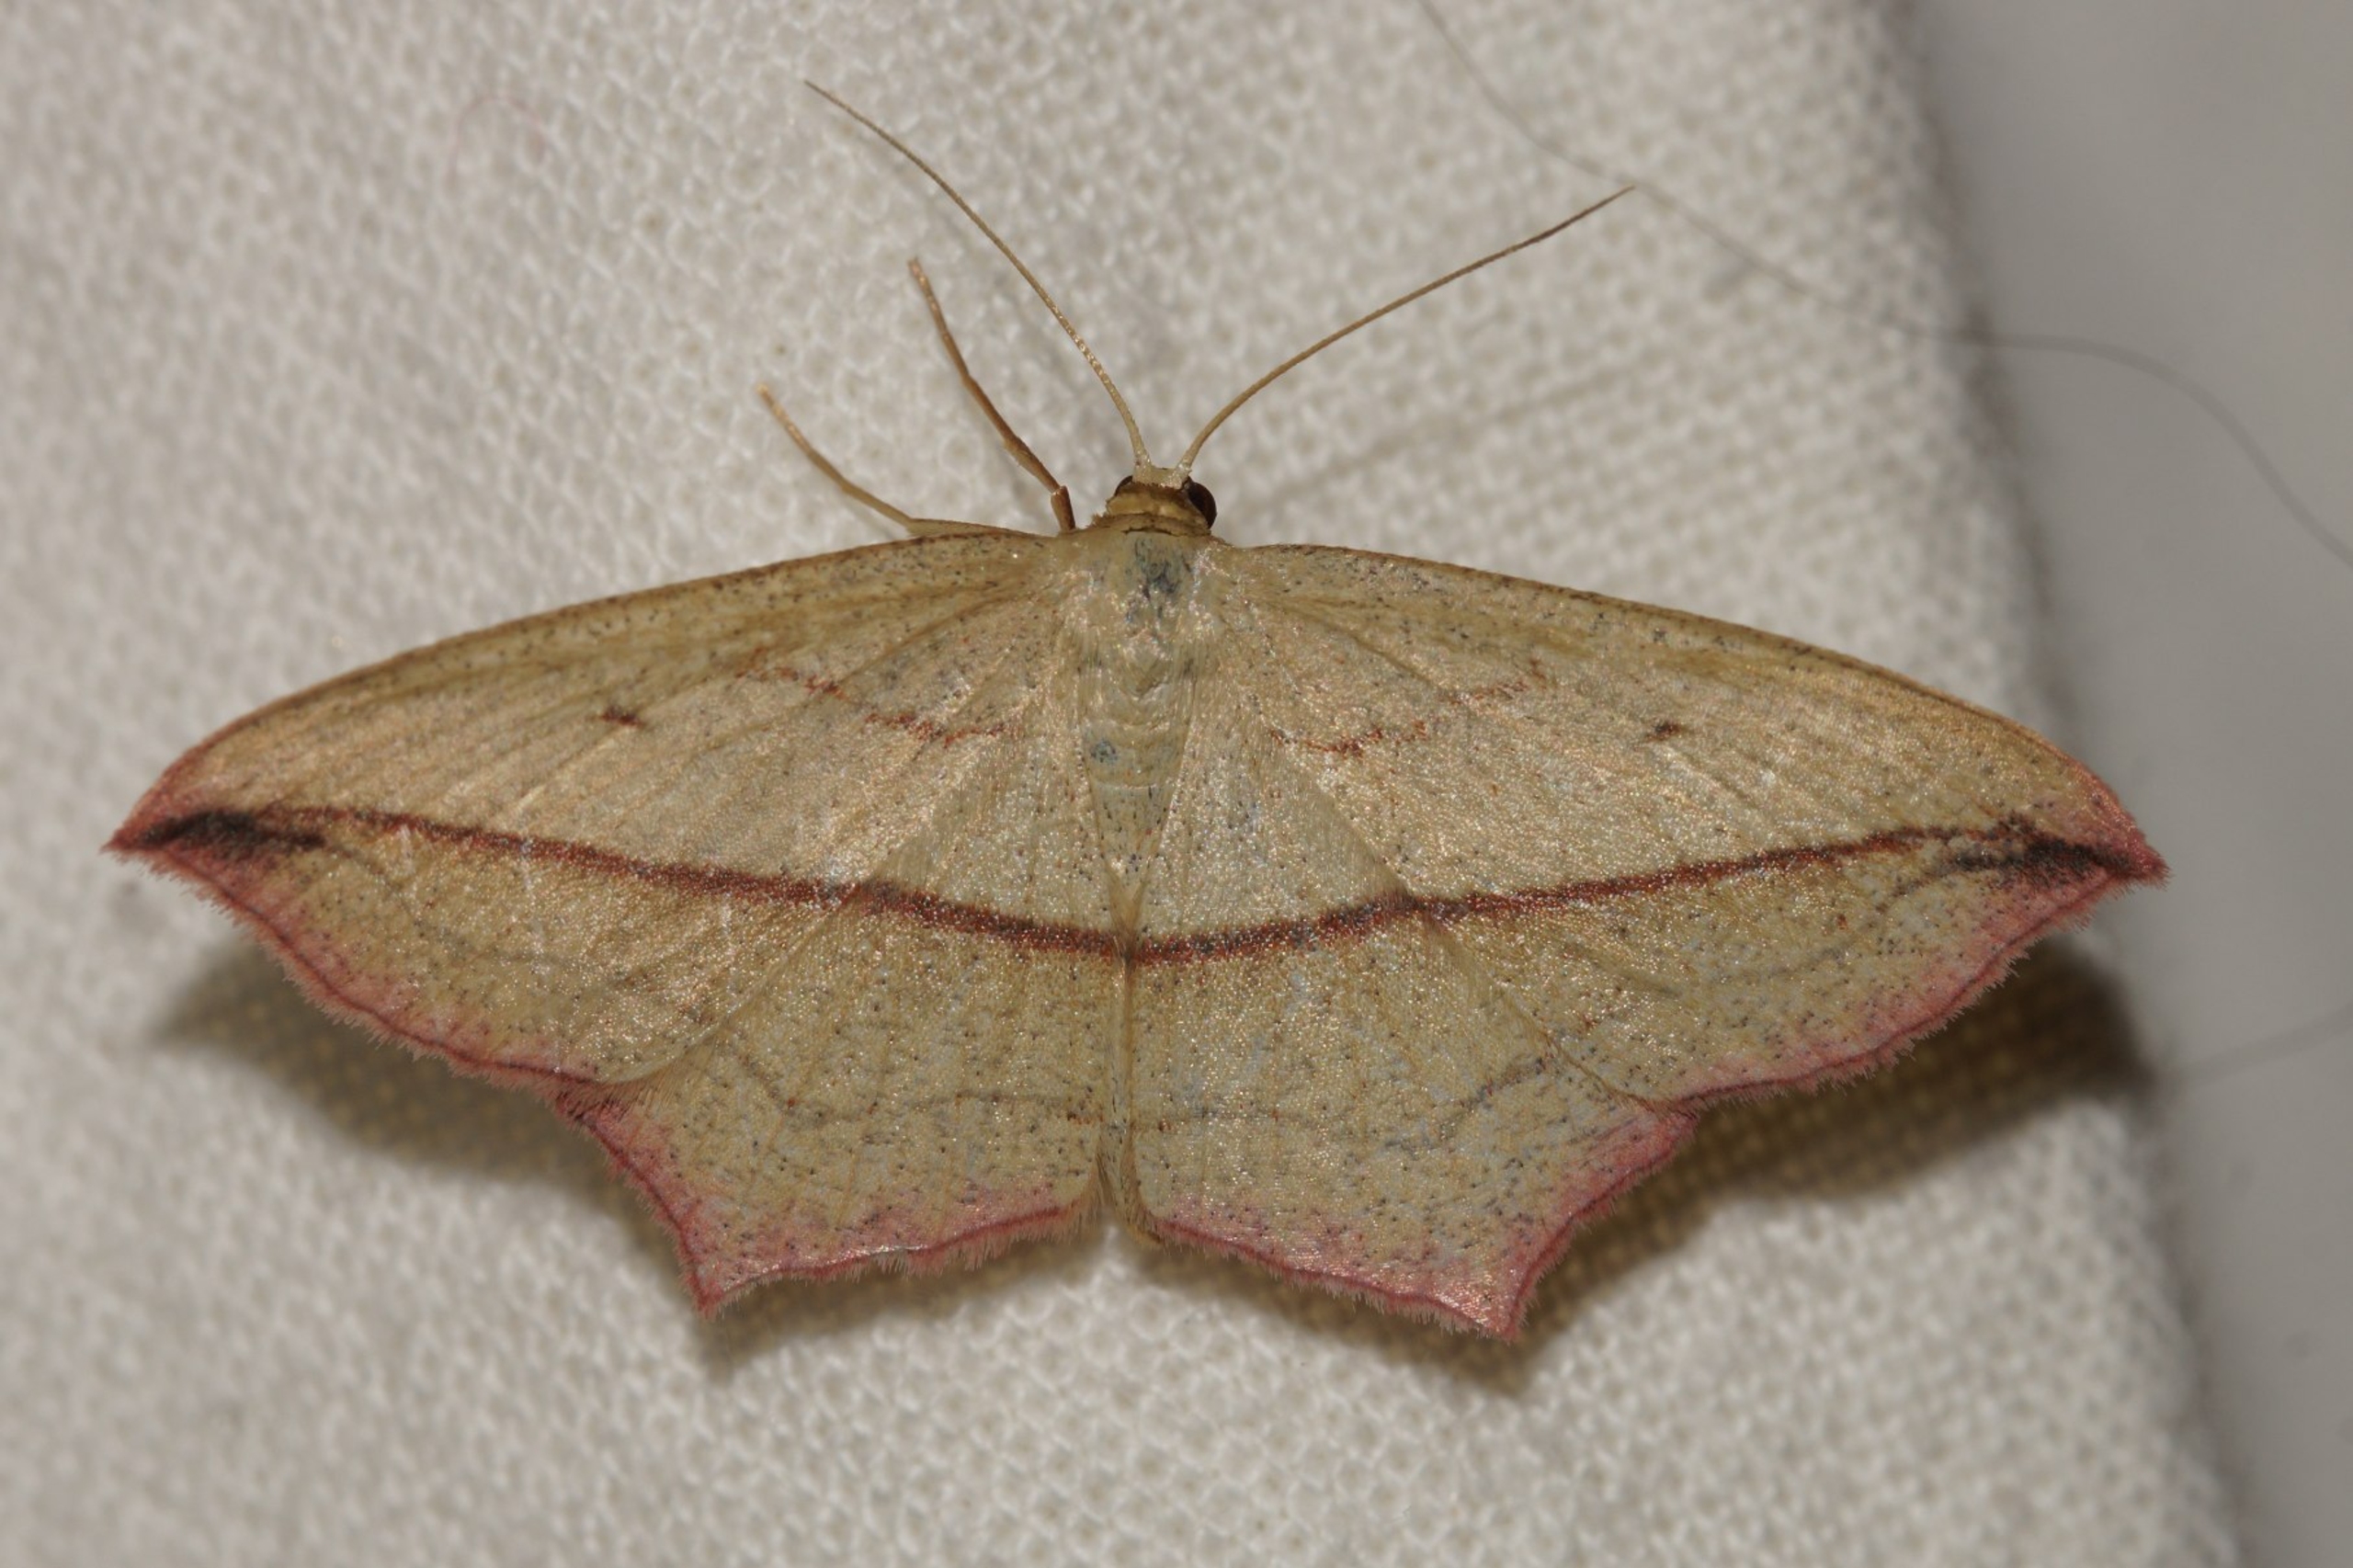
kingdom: Animalia
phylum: Arthropoda
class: Insecta
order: Lepidoptera
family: Geometridae
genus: Timandra
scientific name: Timandra comae
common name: Gul syremåler
